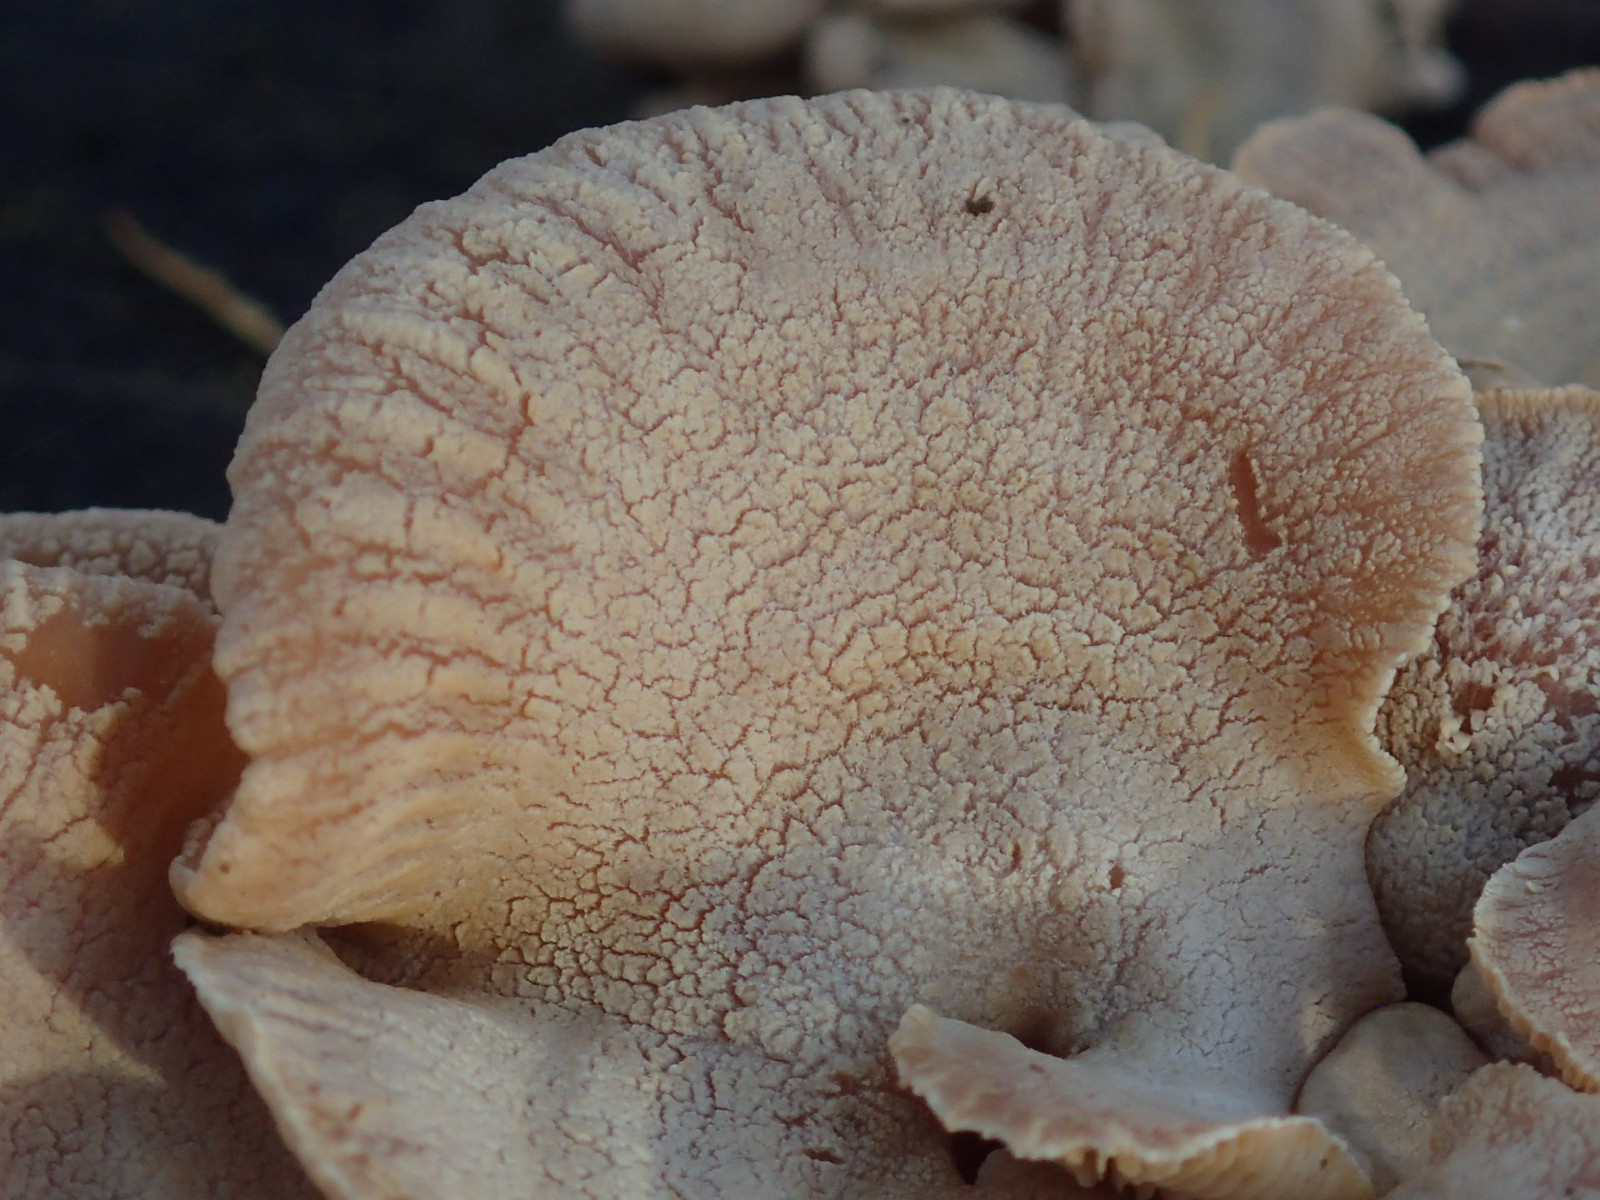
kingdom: Fungi
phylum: Basidiomycota
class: Agaricomycetes
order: Agaricales
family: Mycenaceae
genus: Panellus
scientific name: Panellus stipticus
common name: kliddet epaulethat
